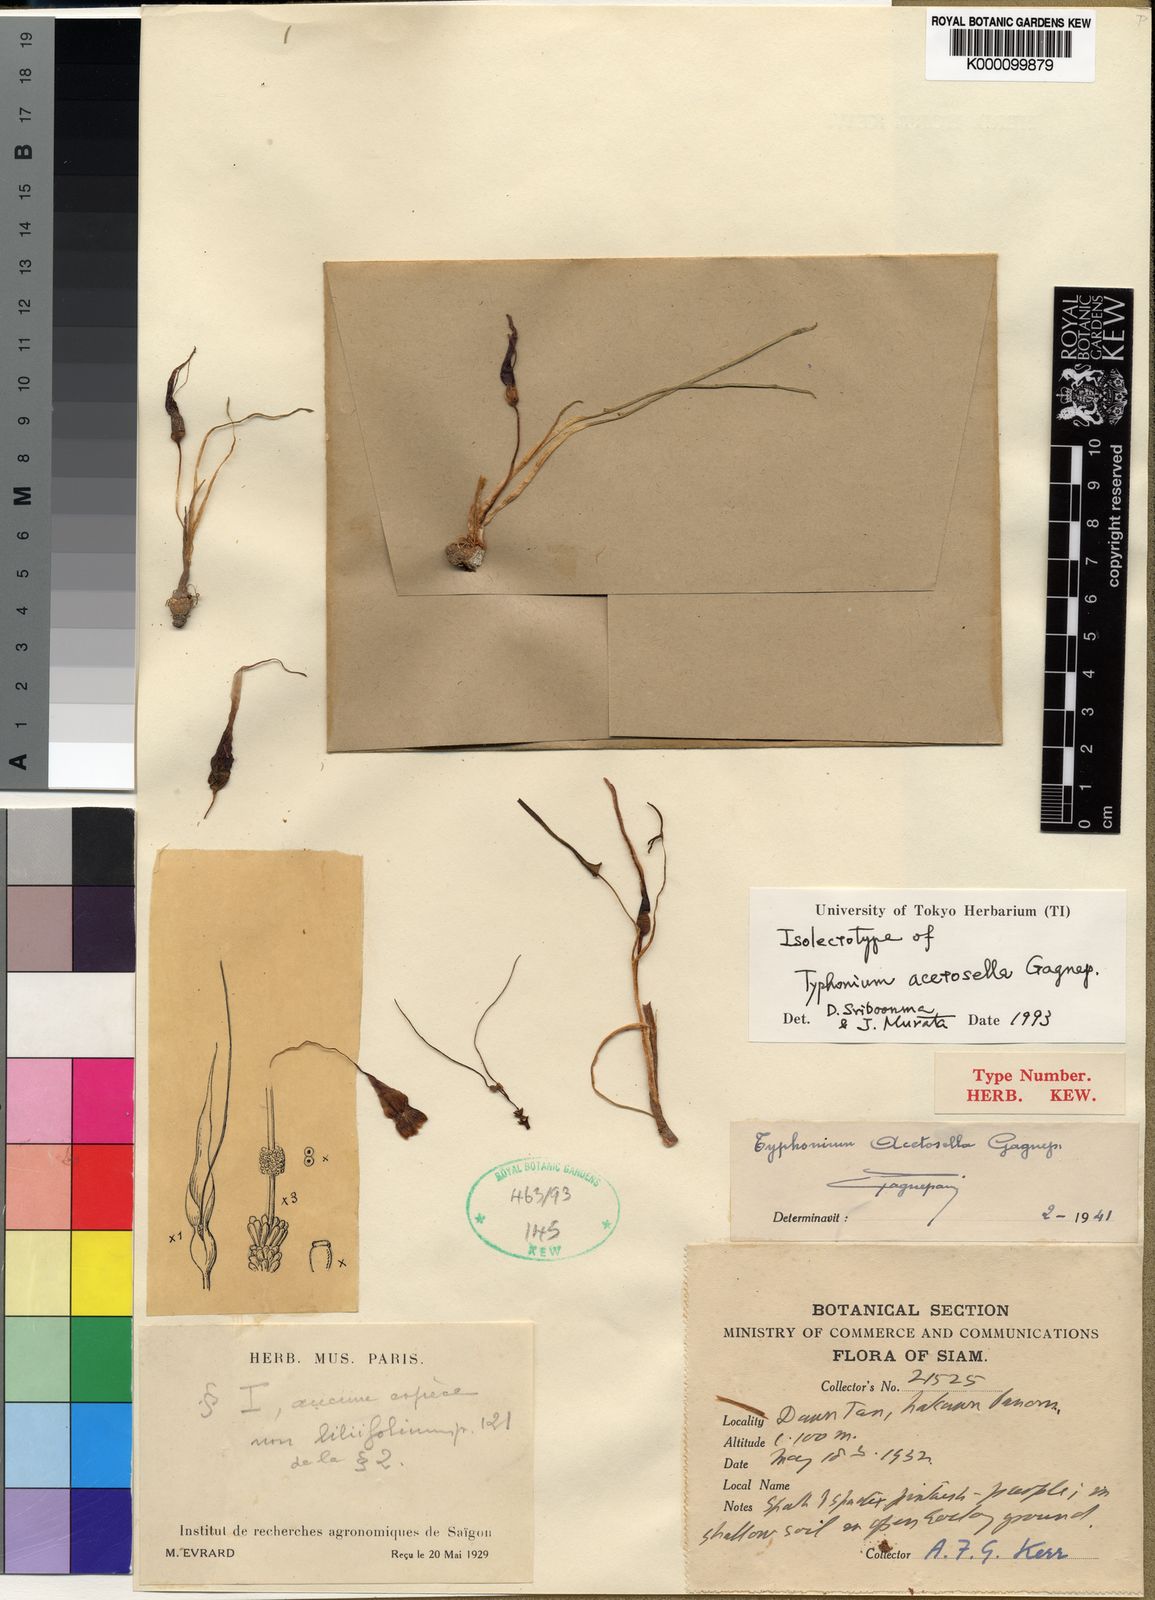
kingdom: Plantae
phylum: Tracheophyta
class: Liliopsida
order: Alismatales
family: Araceae
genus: Typhonium
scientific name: Typhonium acetosella
